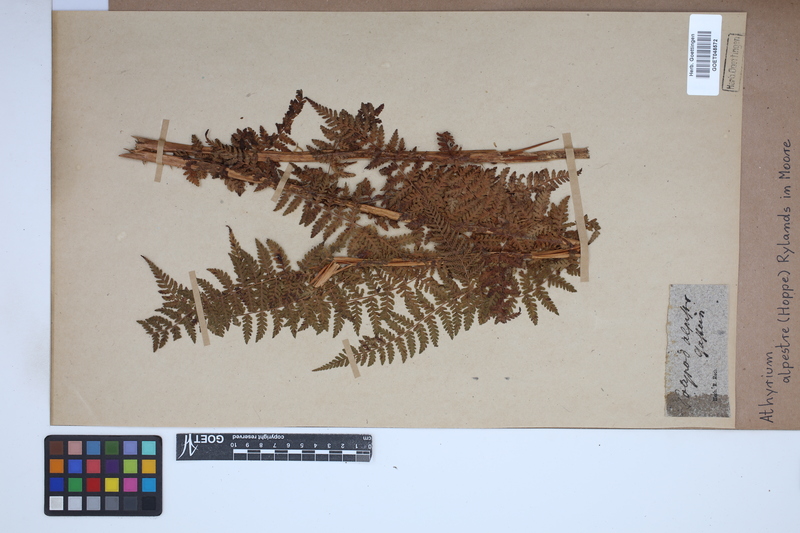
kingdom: Plantae
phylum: Tracheophyta
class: Polypodiopsida
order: Polypodiales
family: Athyriaceae
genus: Pseudathyrium
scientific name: Pseudathyrium alpestre
